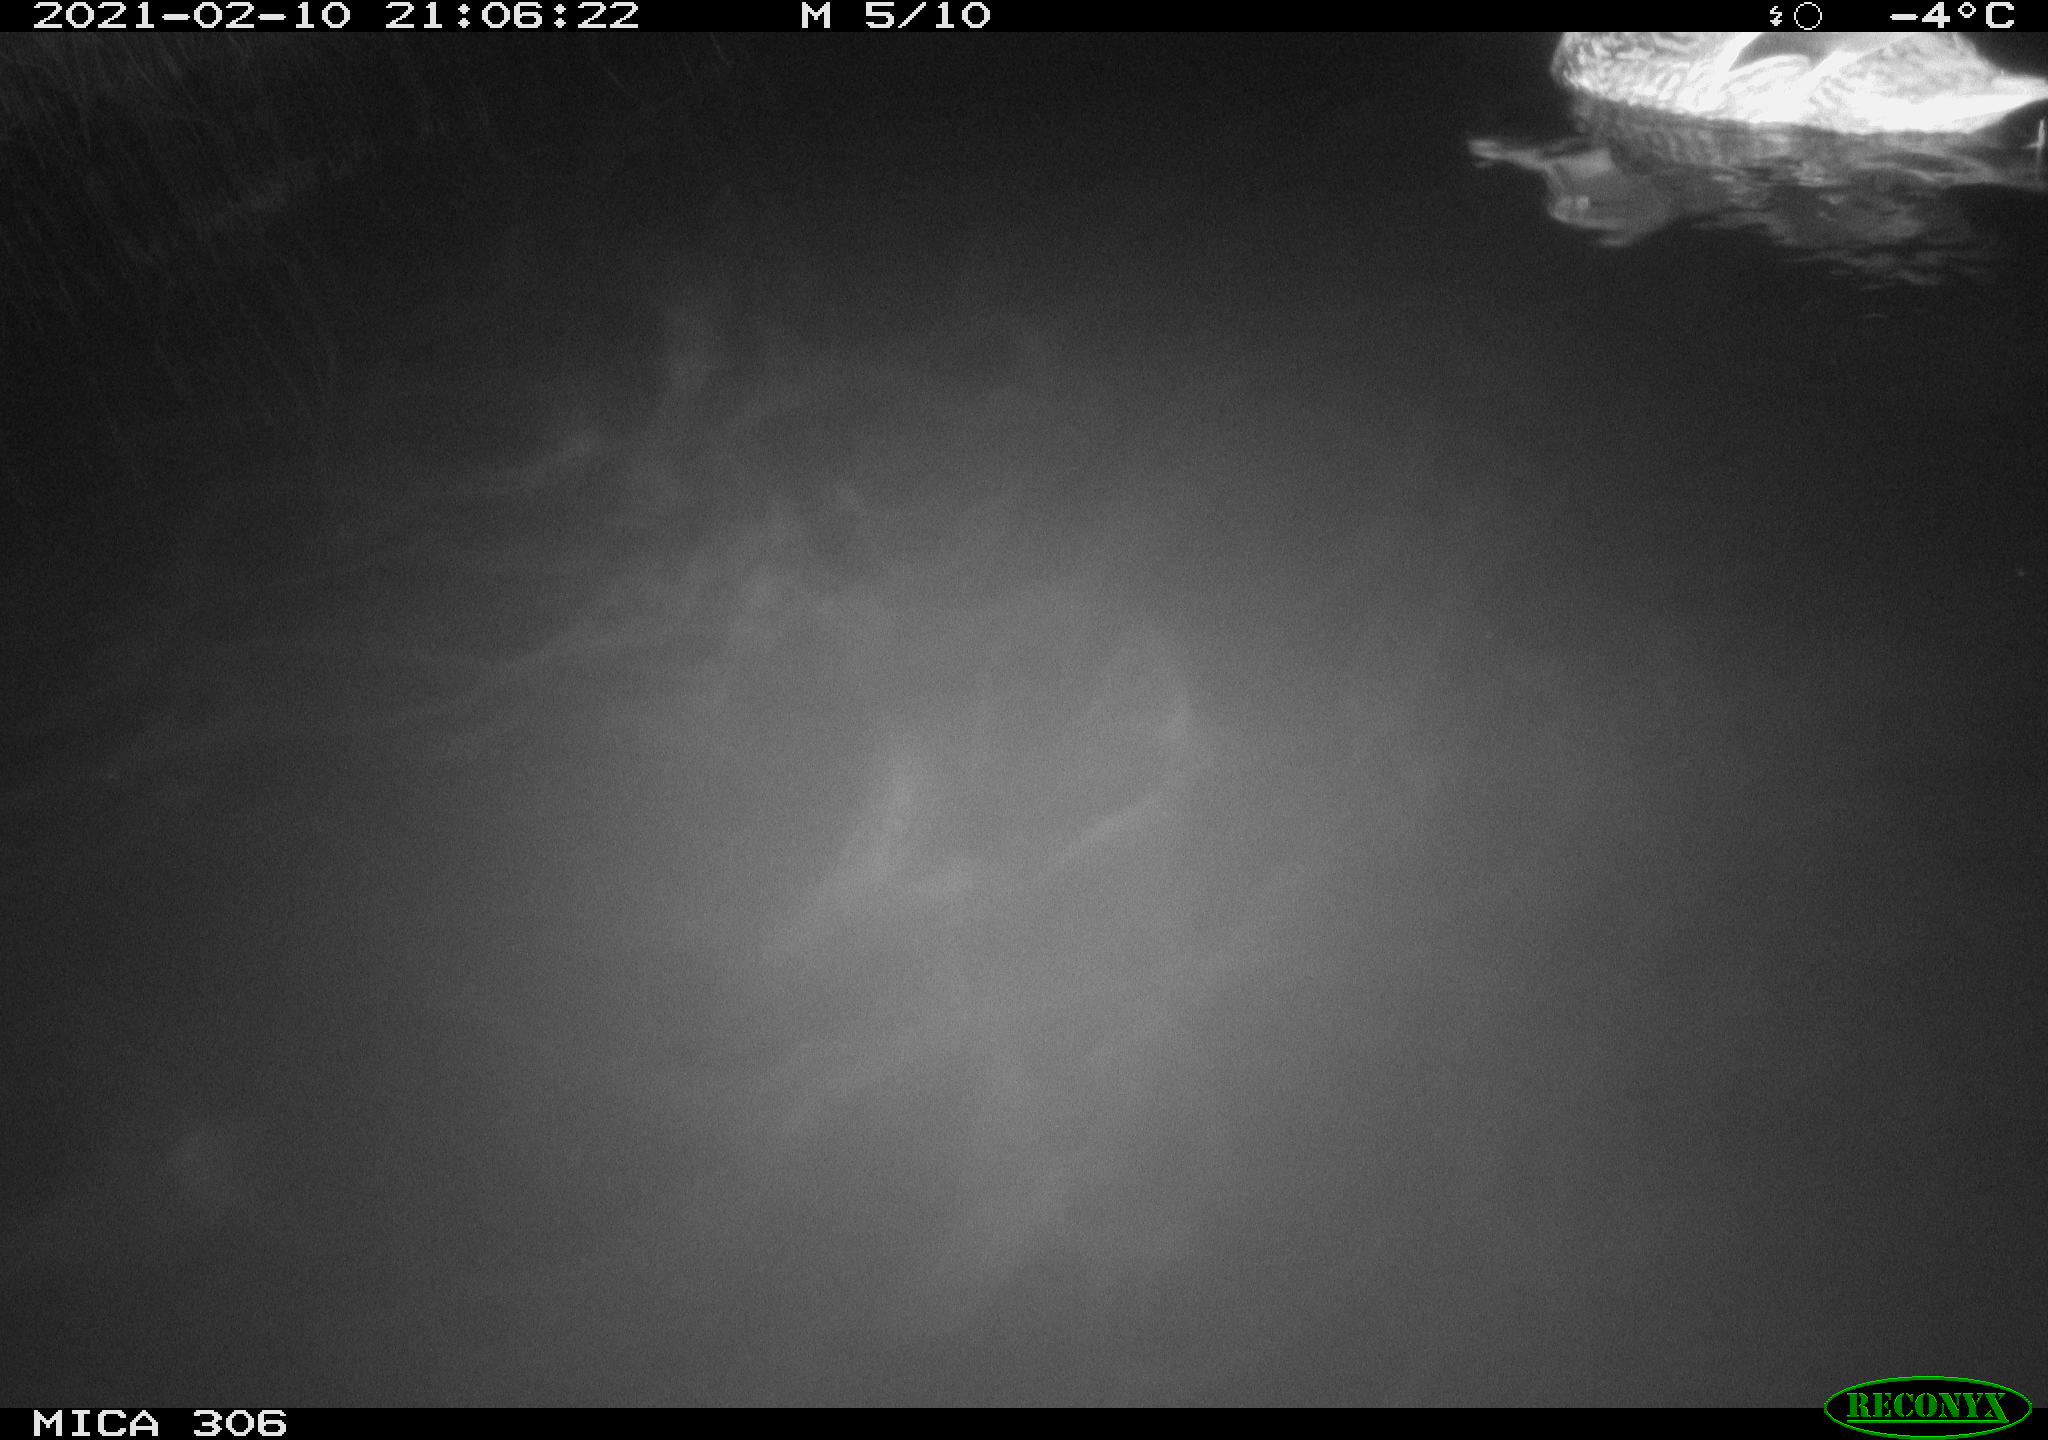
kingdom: Animalia
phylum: Chordata
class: Aves
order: Anseriformes
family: Anatidae
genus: Anas
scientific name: Anas platyrhynchos
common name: Mallard
